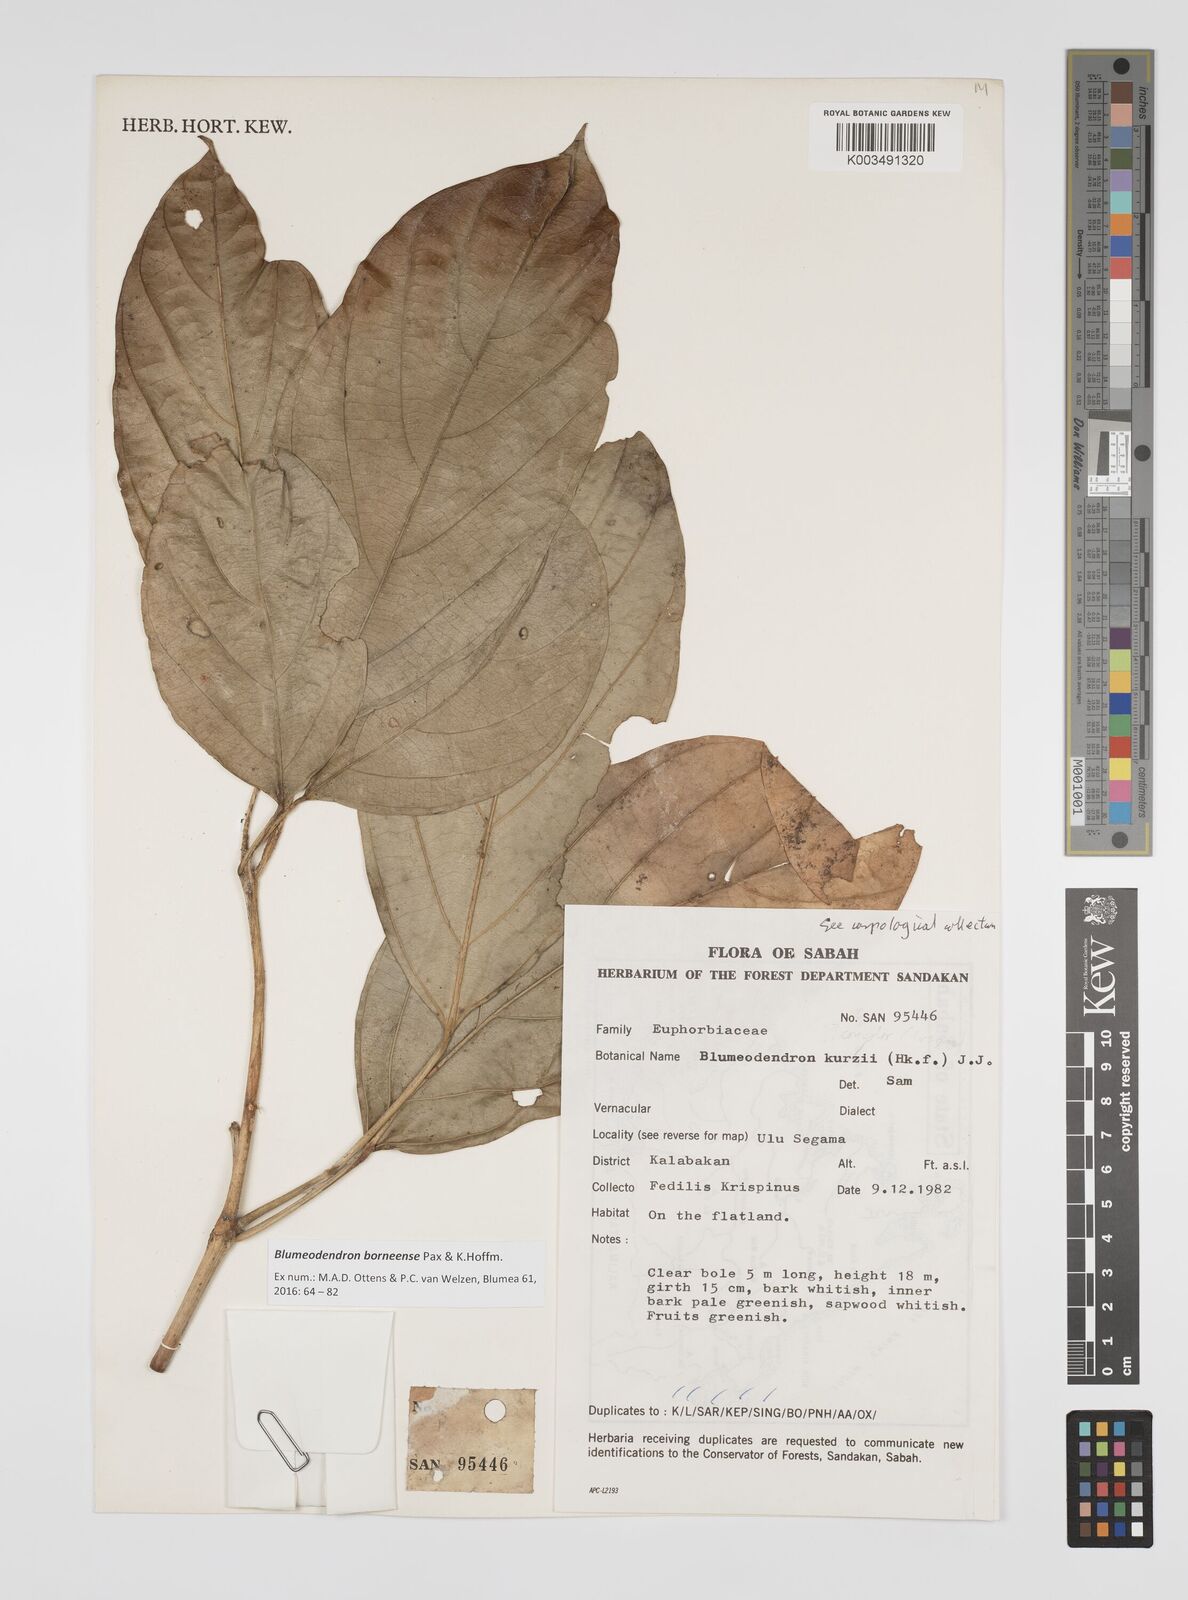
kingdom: Plantae
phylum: Tracheophyta
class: Magnoliopsida
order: Malpighiales
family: Euphorbiaceae
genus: Blumeodendron
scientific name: Blumeodendron borneense
